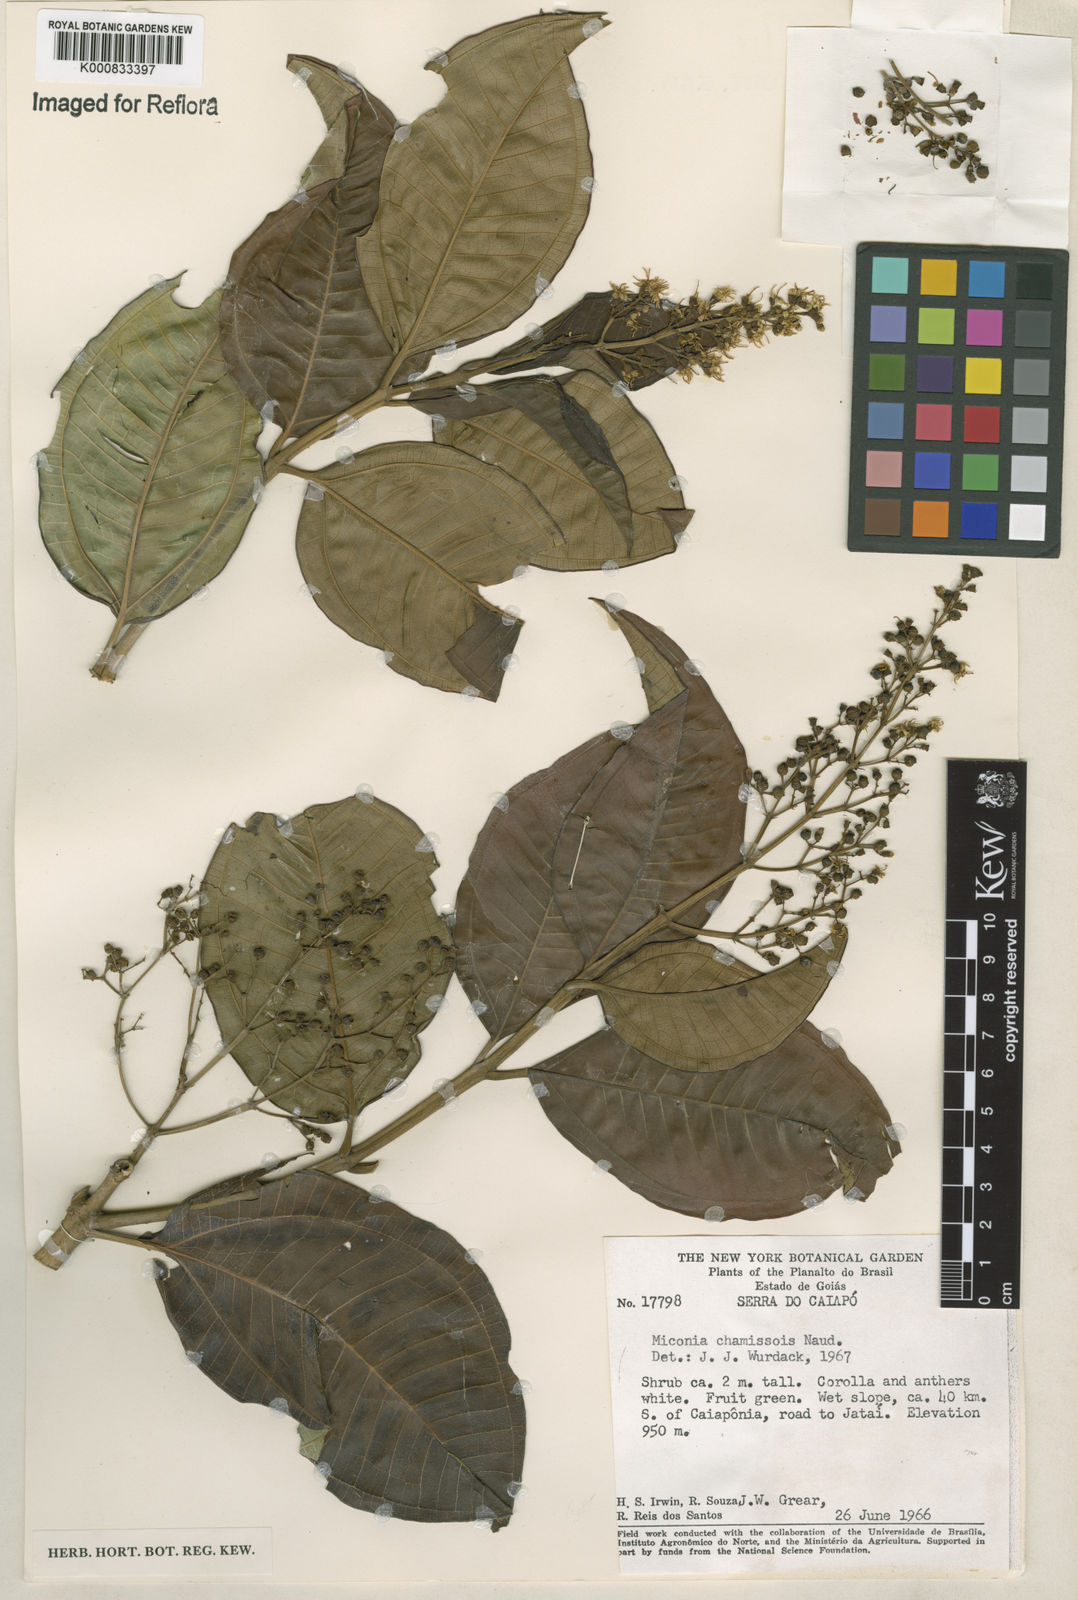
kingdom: Plantae
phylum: Tracheophyta
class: Magnoliopsida
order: Myrtales
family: Melastomataceae
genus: Miconia
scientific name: Miconia chamissois
